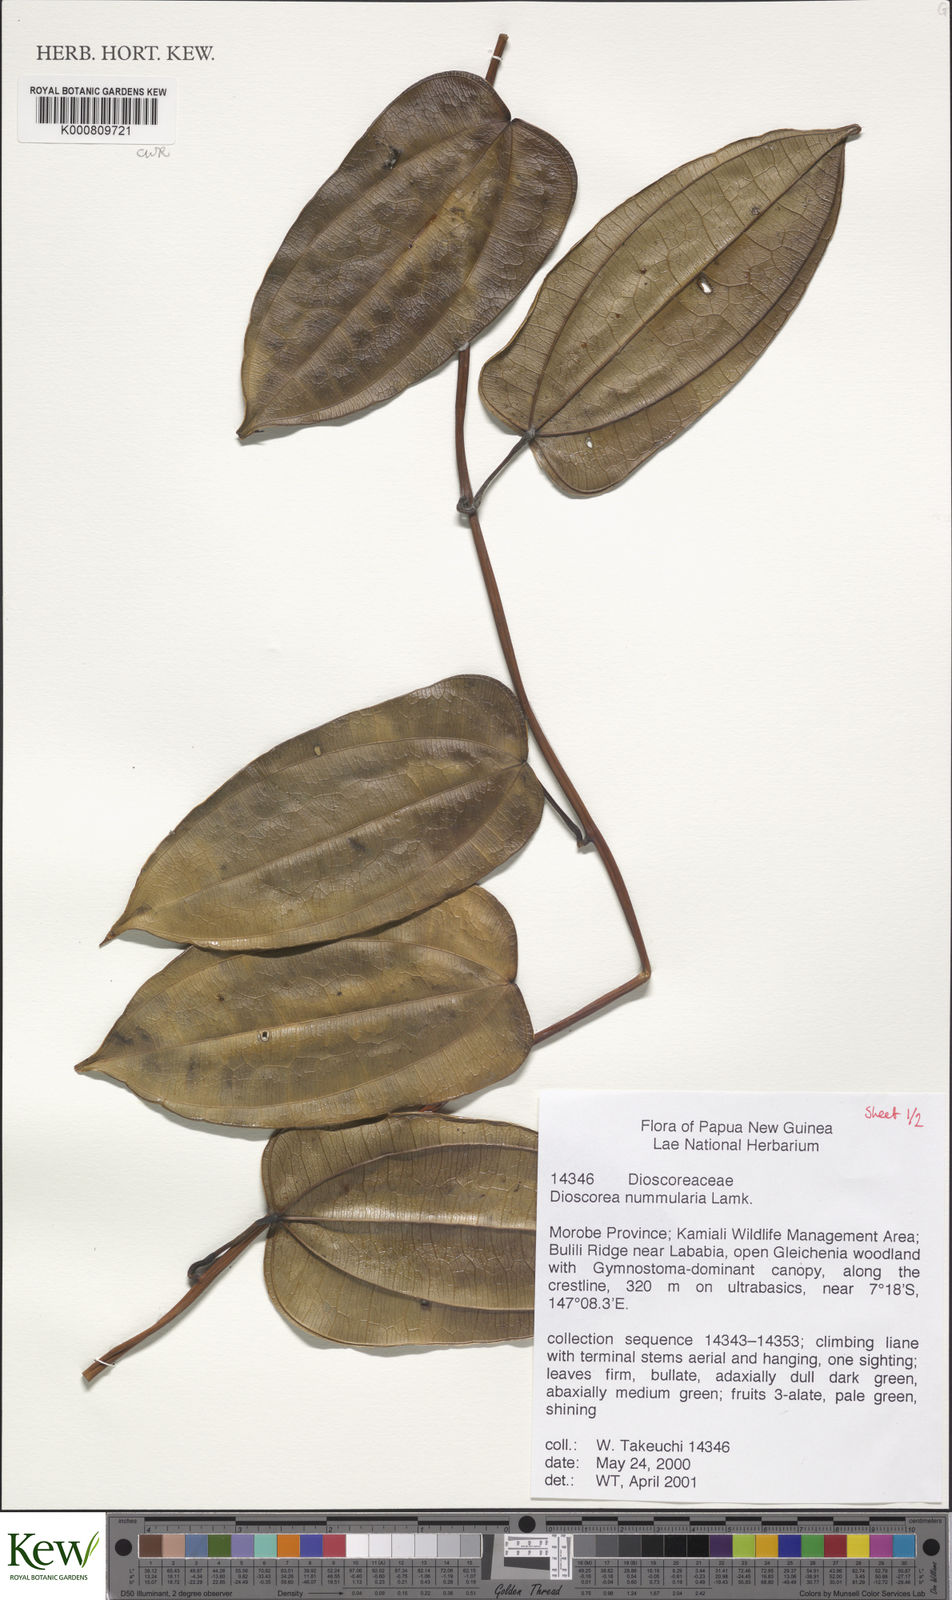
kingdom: Plantae
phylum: Tracheophyta
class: Liliopsida
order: Dioscoreales
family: Dioscoreaceae
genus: Dioscorea
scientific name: Dioscorea nummularia
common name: Pacific yam
